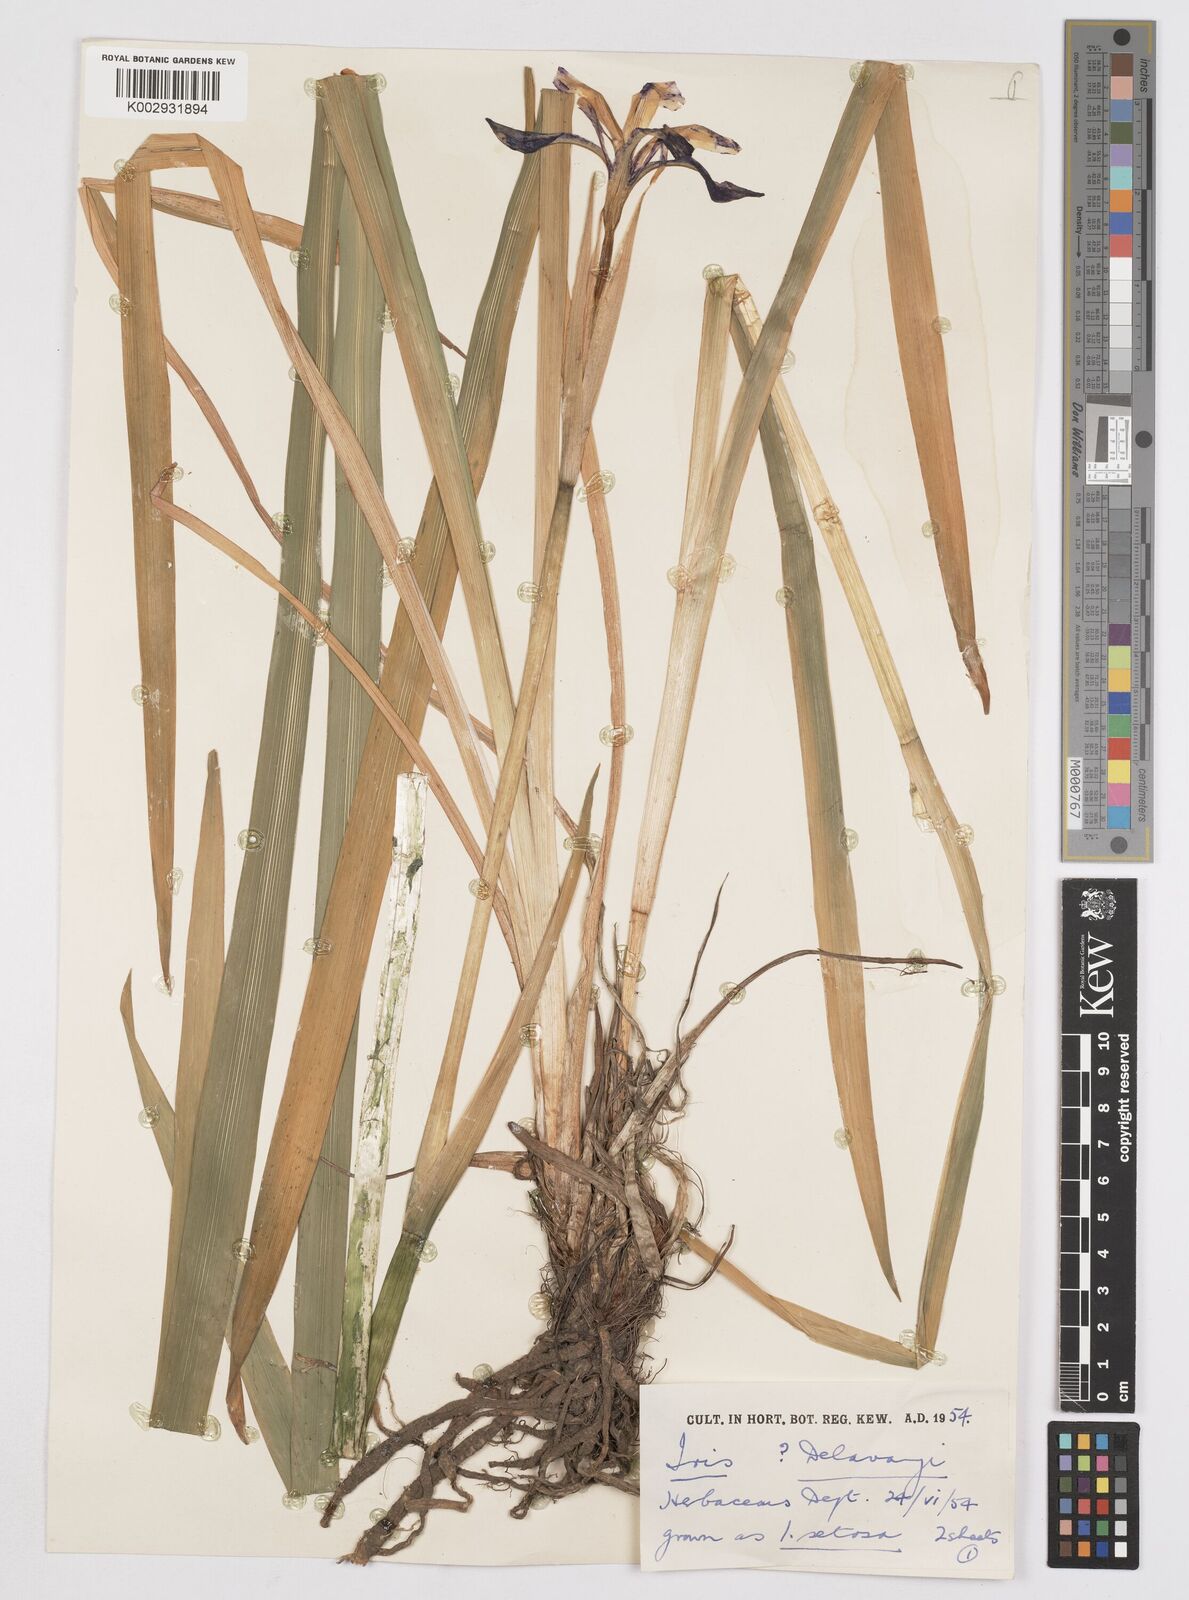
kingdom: Plantae
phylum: Tracheophyta
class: Liliopsida
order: Asparagales
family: Iridaceae
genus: Iris
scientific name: Iris delavayi
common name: Long-scape iris
